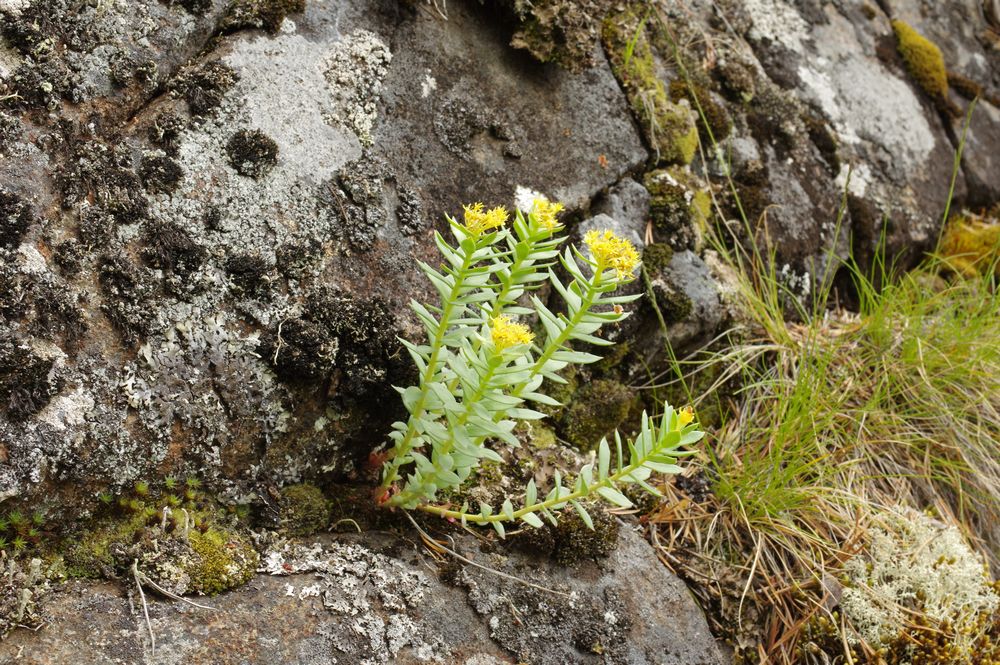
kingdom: Plantae
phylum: Tracheophyta
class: Magnoliopsida
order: Saxifragales
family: Crassulaceae
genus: Rhodiola
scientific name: Rhodiola rosea
